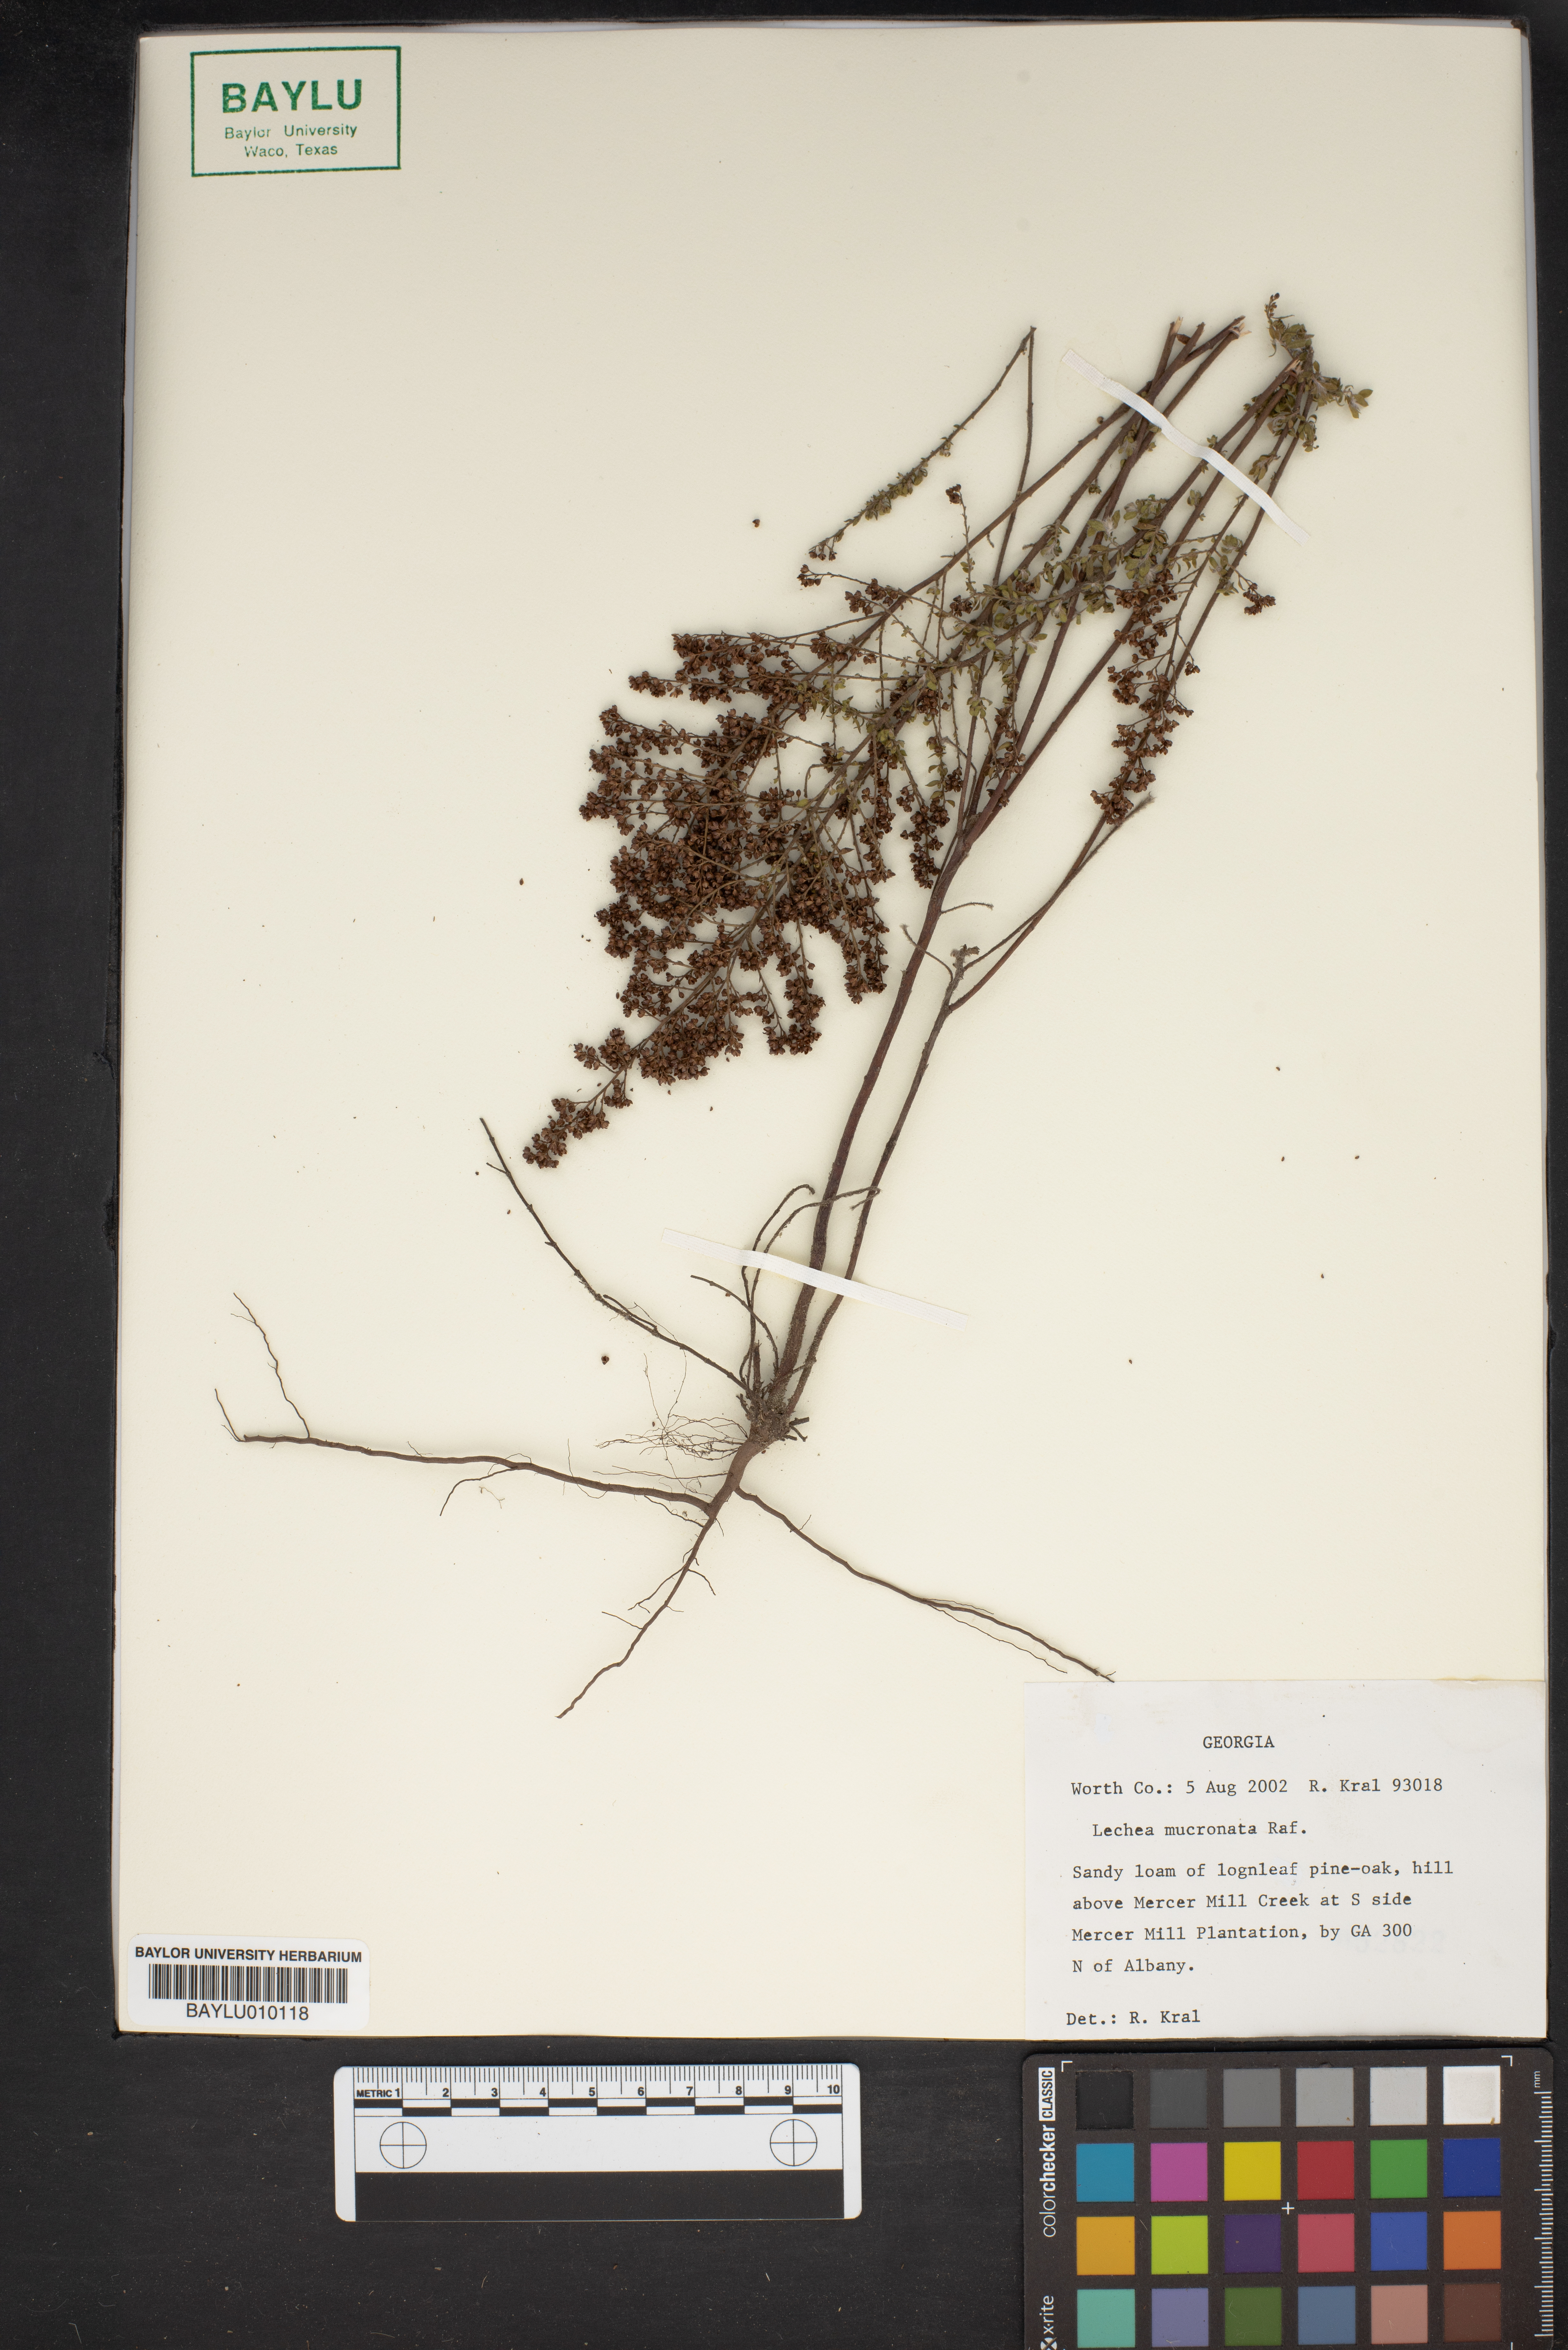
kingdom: Plantae
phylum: Tracheophyta
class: Magnoliopsida
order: Malvales
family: Cistaceae
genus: Lechea
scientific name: Lechea mucronata
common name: Hairy pinweed
